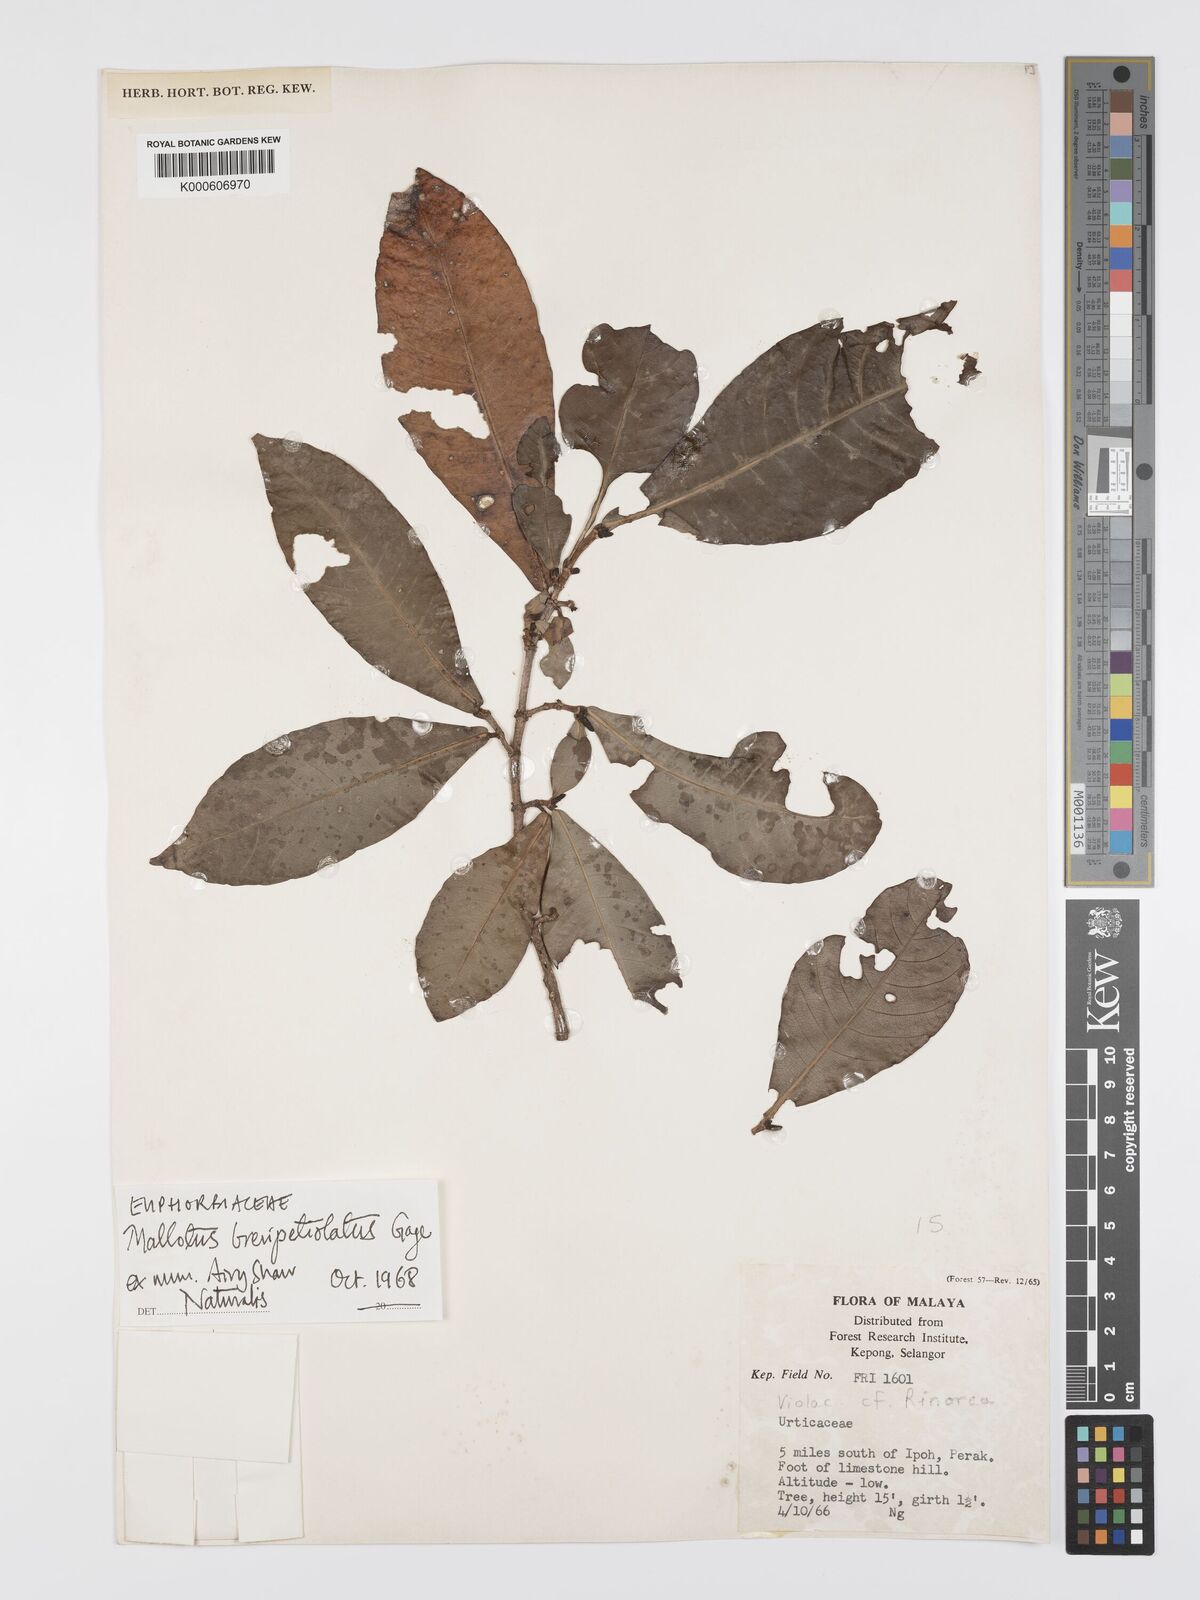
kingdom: Plantae
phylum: Tracheophyta
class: Magnoliopsida
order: Malpighiales
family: Euphorbiaceae
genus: Mallotus
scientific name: Mallotus brevipetiolatus
